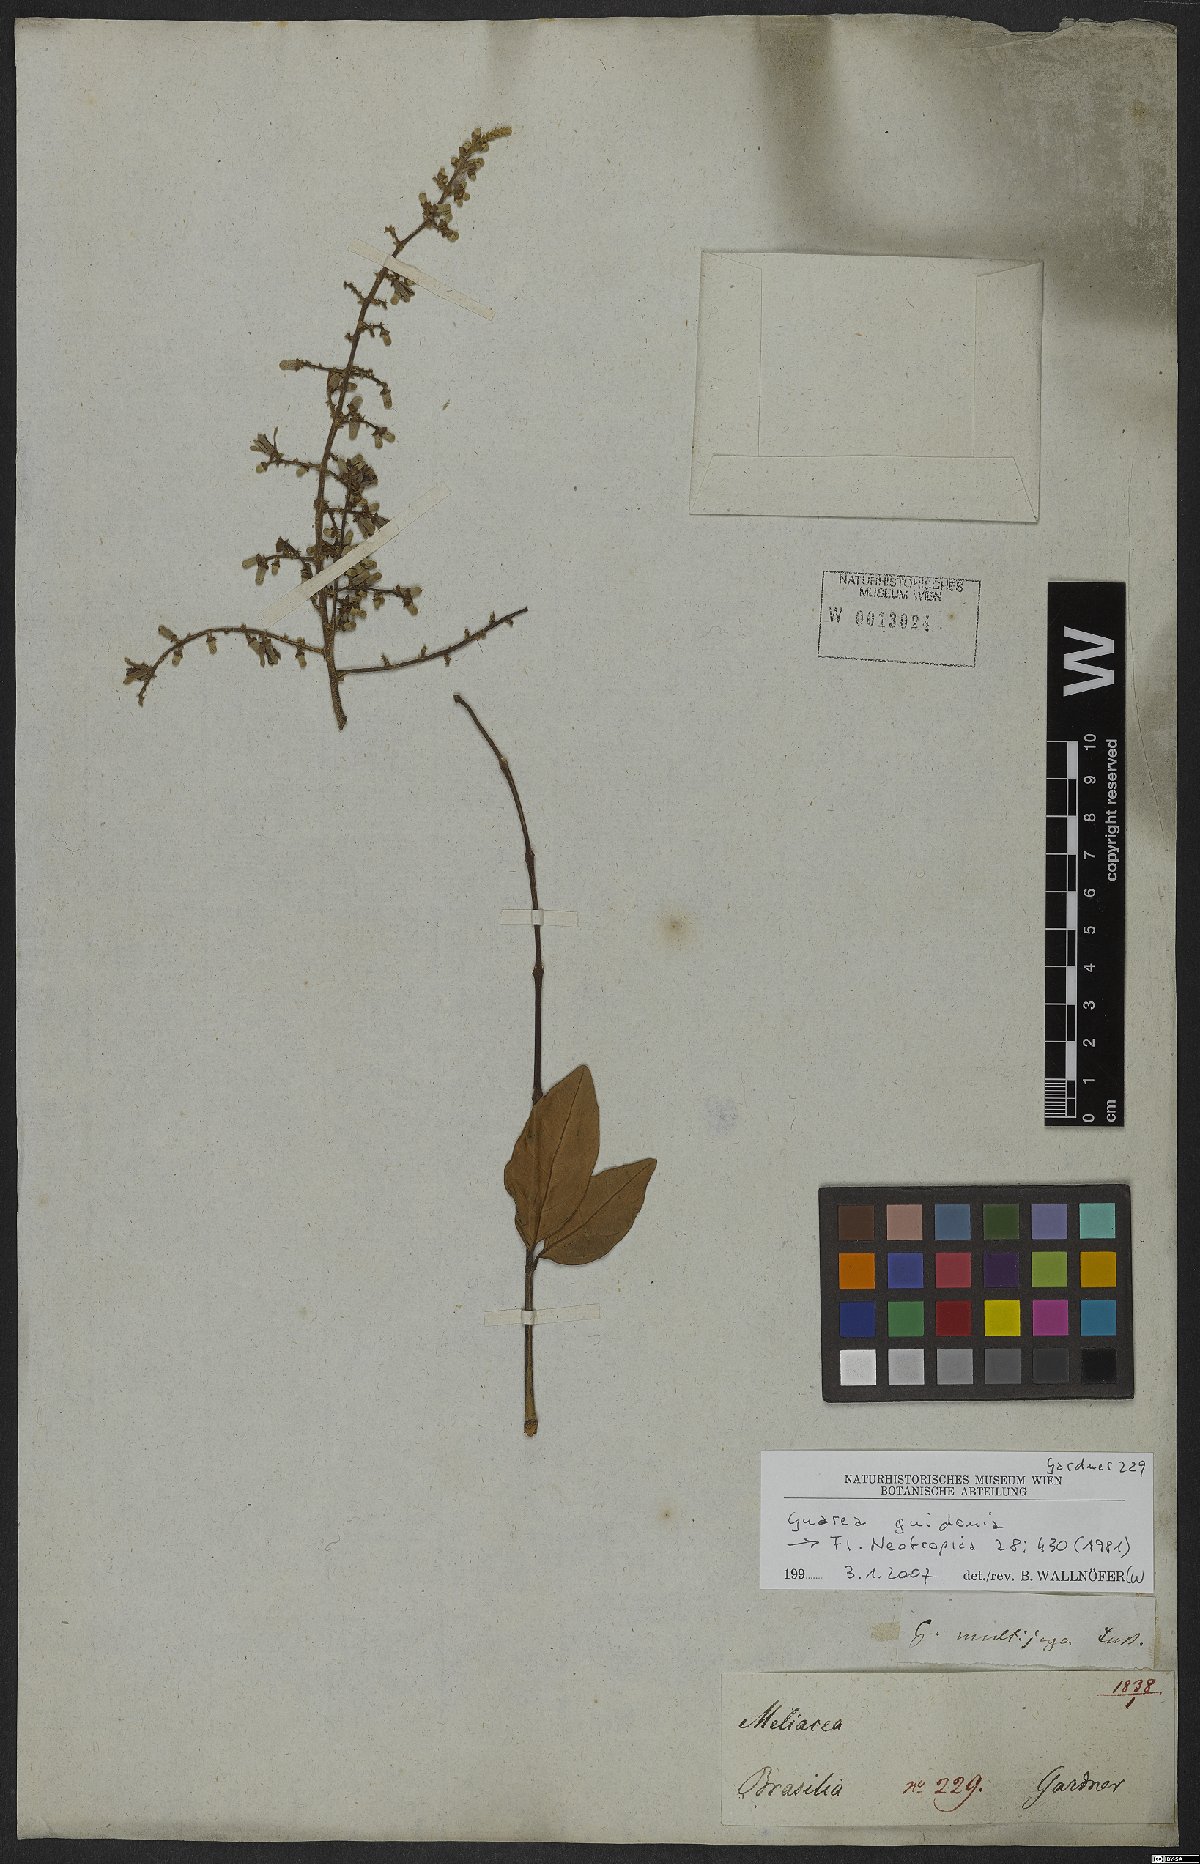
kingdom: Plantae
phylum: Tracheophyta
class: Magnoliopsida
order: Sapindales
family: Meliaceae
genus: Guarea
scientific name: Guarea guidonia
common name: American muskwood
